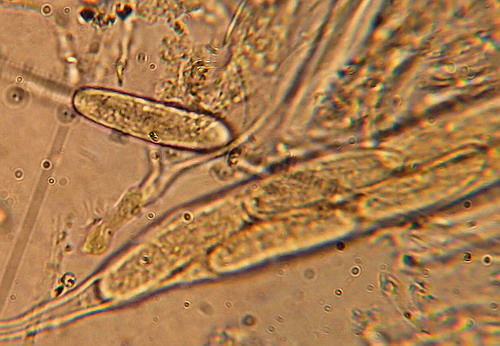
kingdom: Fungi
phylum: Ascomycota
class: Leotiomycetes
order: Chaetomellales
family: Marthamycetaceae
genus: Propolis
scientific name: Propolis farinosa
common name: almindelig vedsprængerskive
